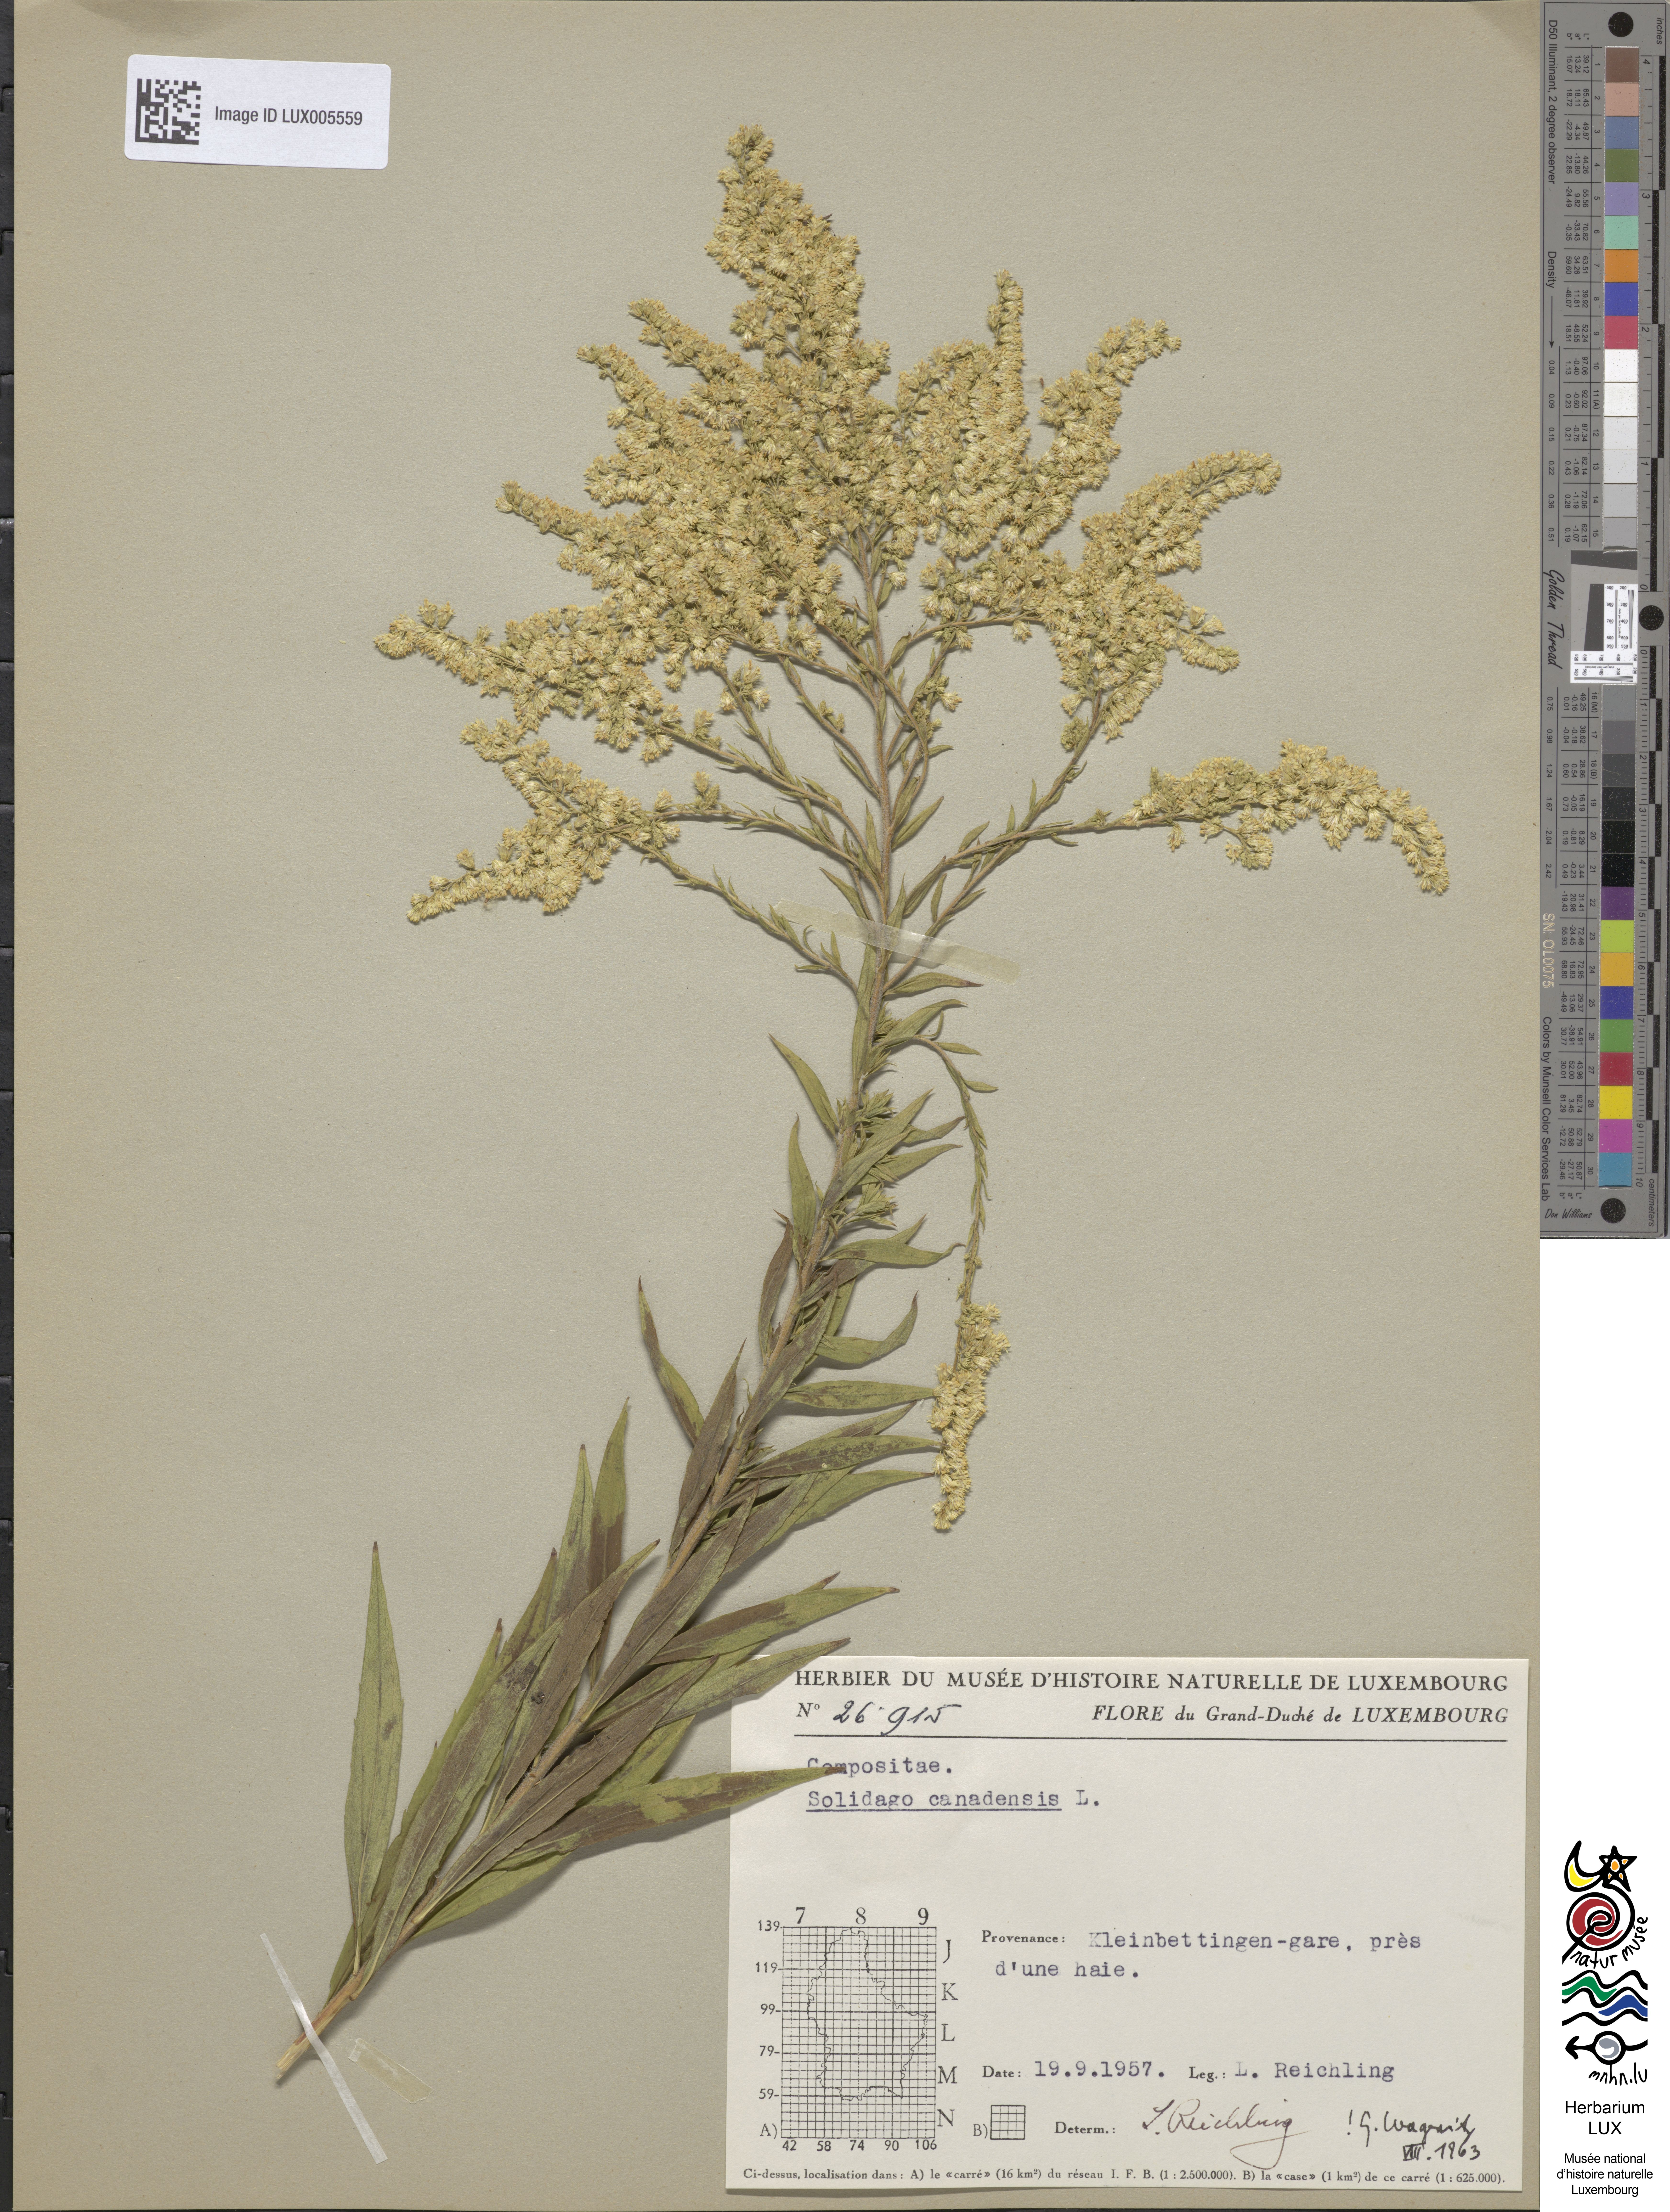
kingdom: Plantae
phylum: Tracheophyta
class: Magnoliopsida
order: Asterales
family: Asteraceae
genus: Solidago
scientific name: Solidago canadensis
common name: Canada goldenrod
